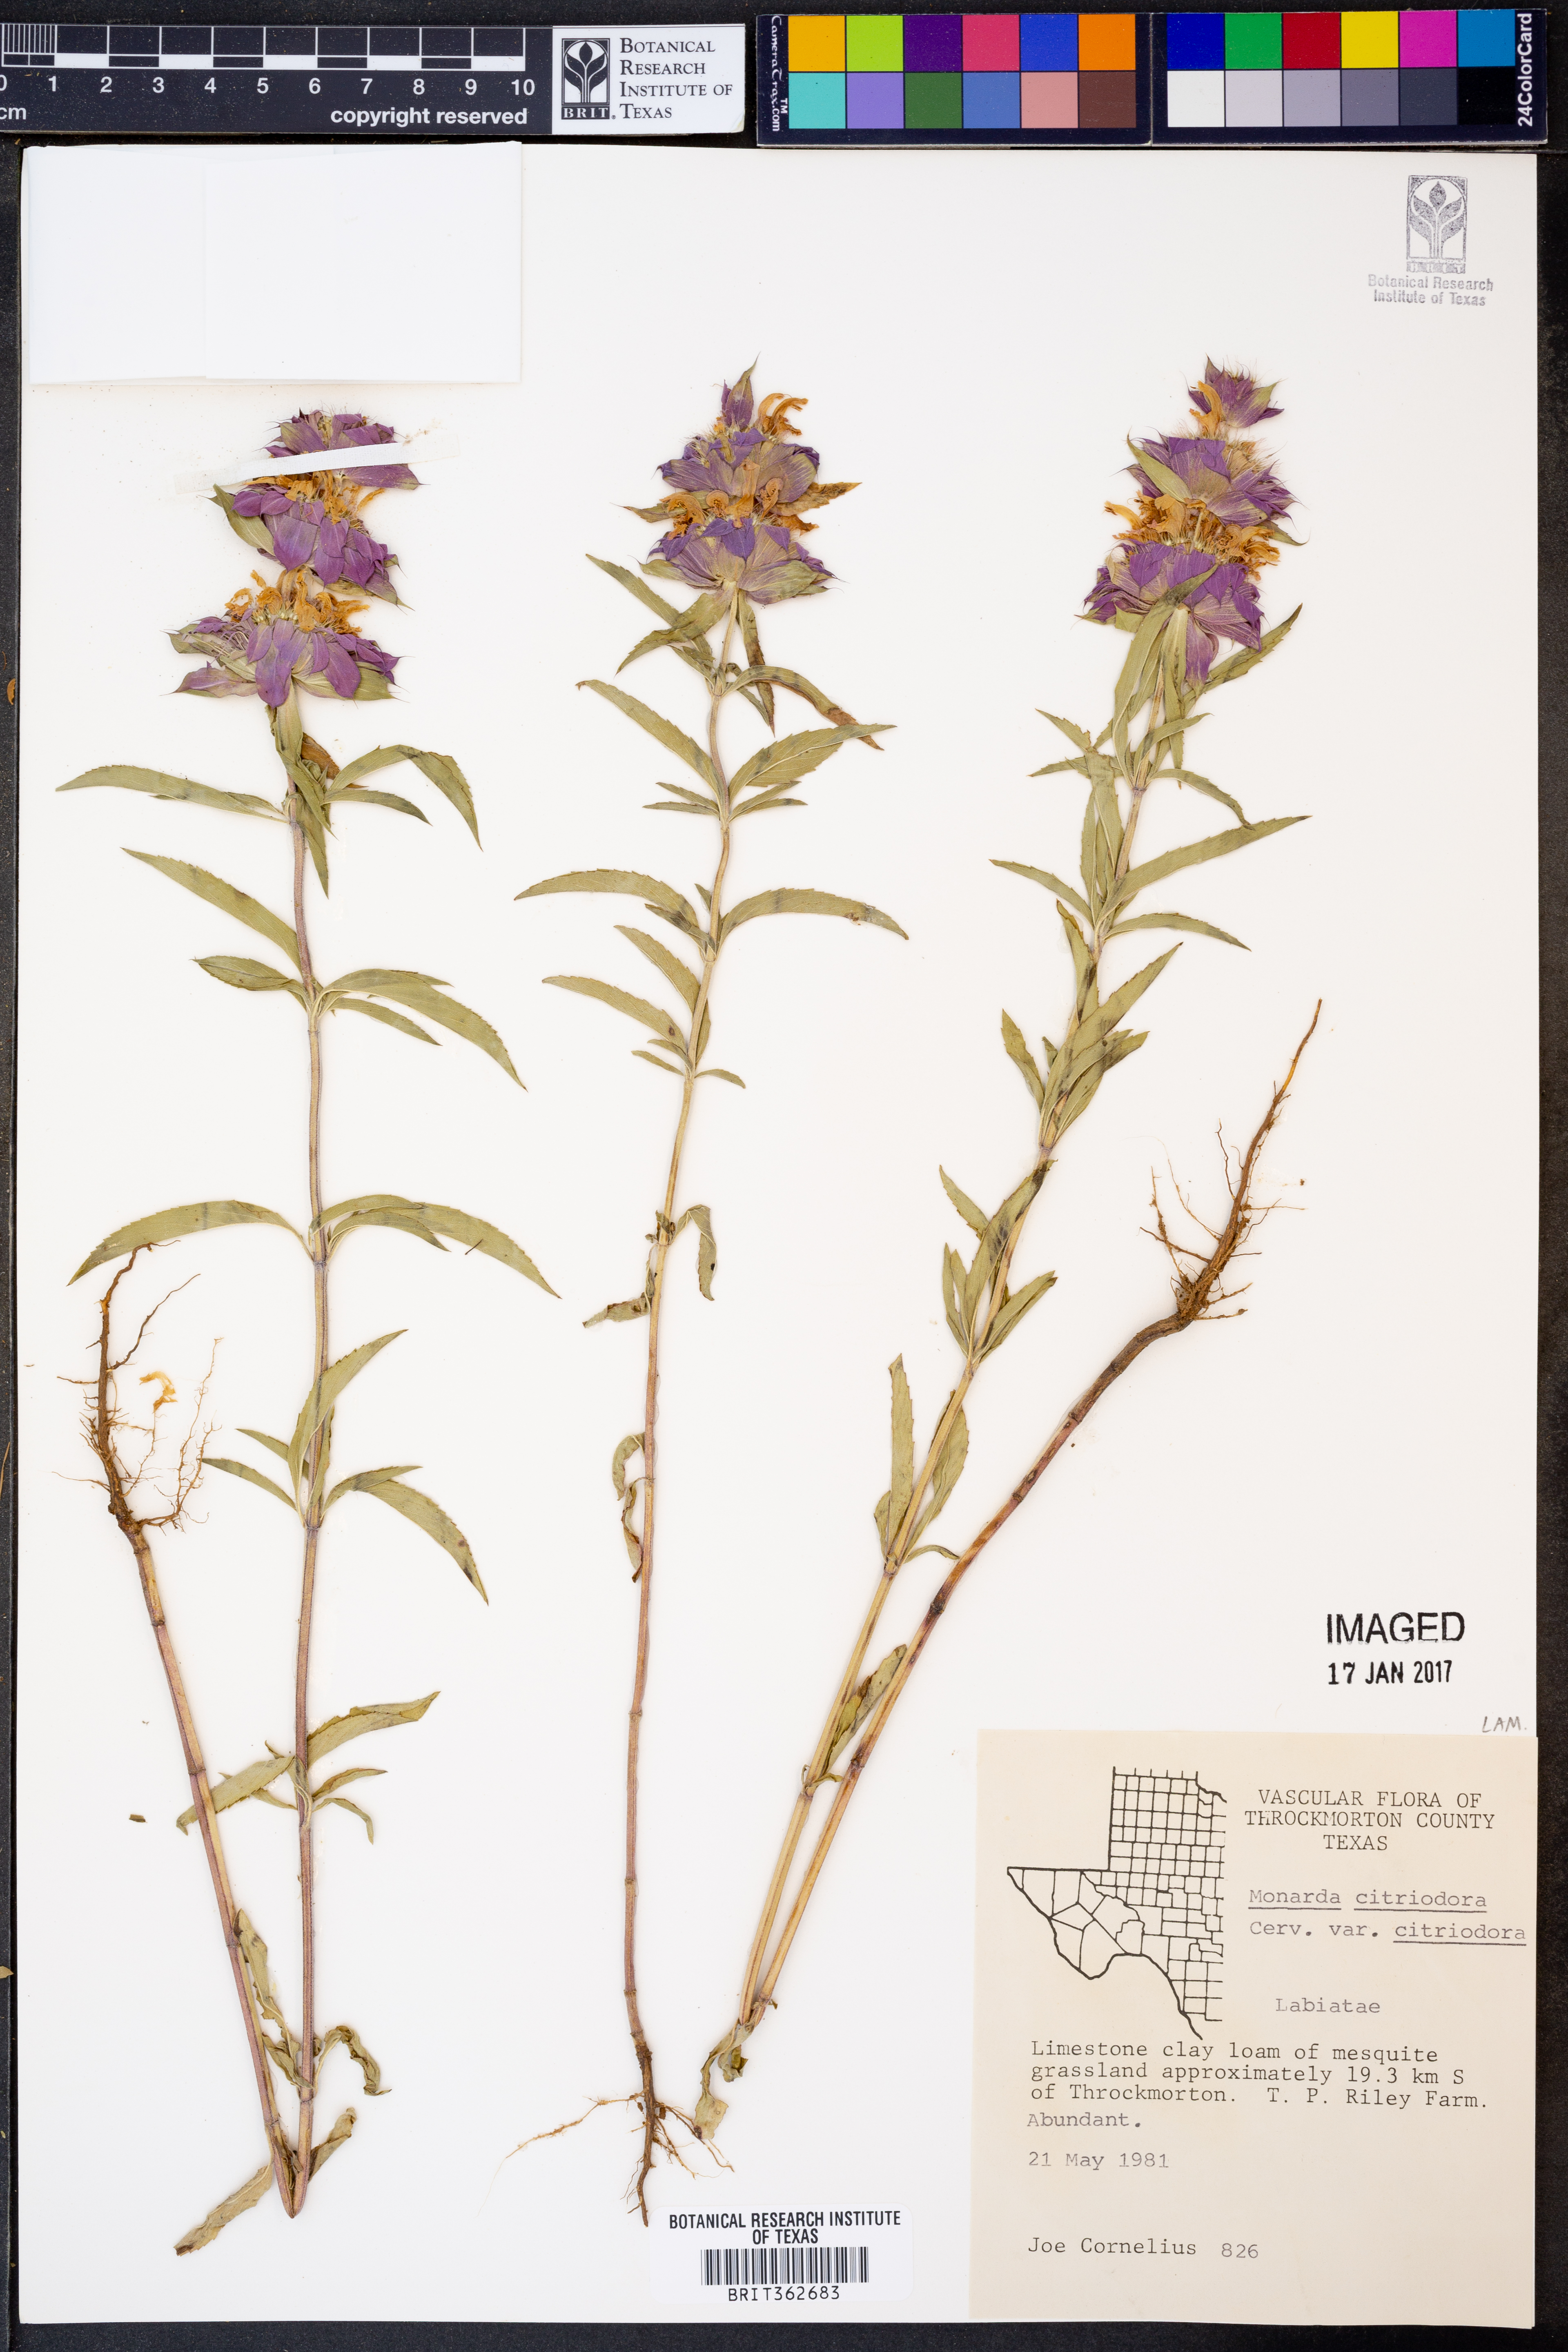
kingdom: Plantae
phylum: Tracheophyta
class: Magnoliopsida
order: Lamiales
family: Lamiaceae
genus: Monarda
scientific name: Monarda citriodora
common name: Lemon beebalm
